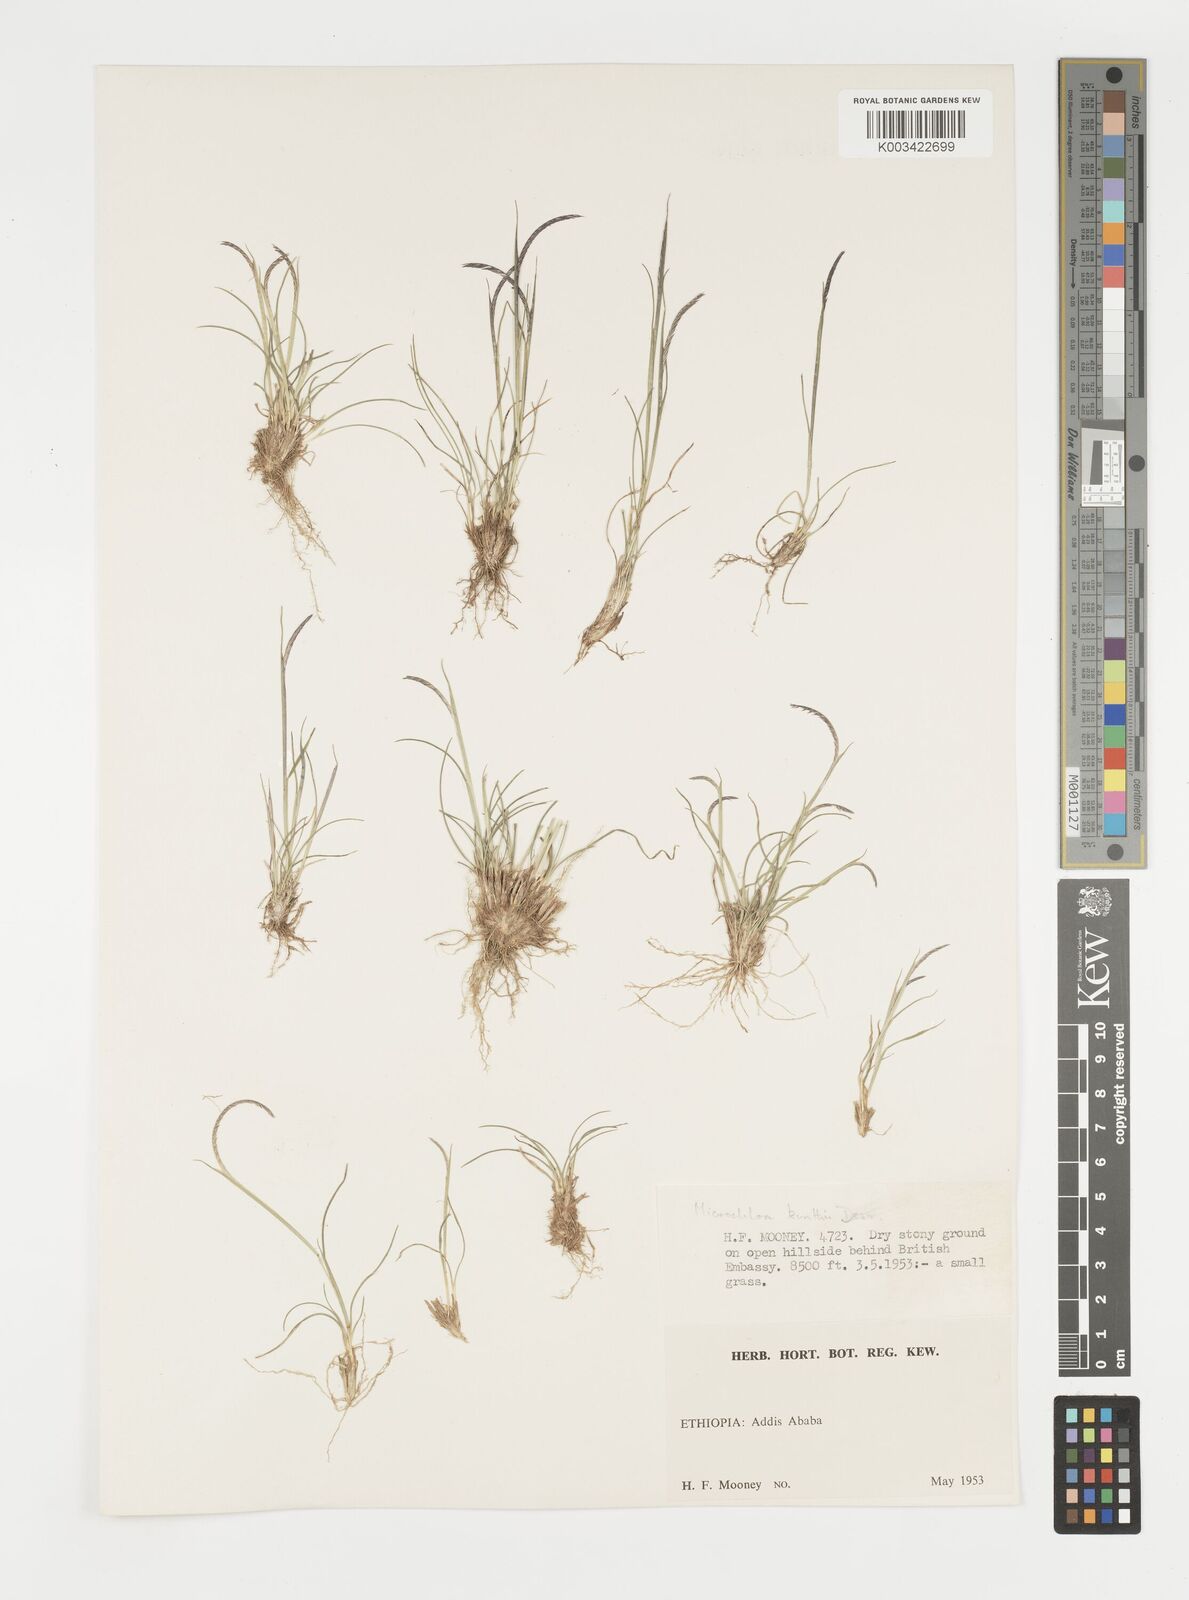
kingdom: Plantae
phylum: Tracheophyta
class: Liliopsida
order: Poales
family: Poaceae
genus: Microchloa
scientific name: Microchloa kunthii
